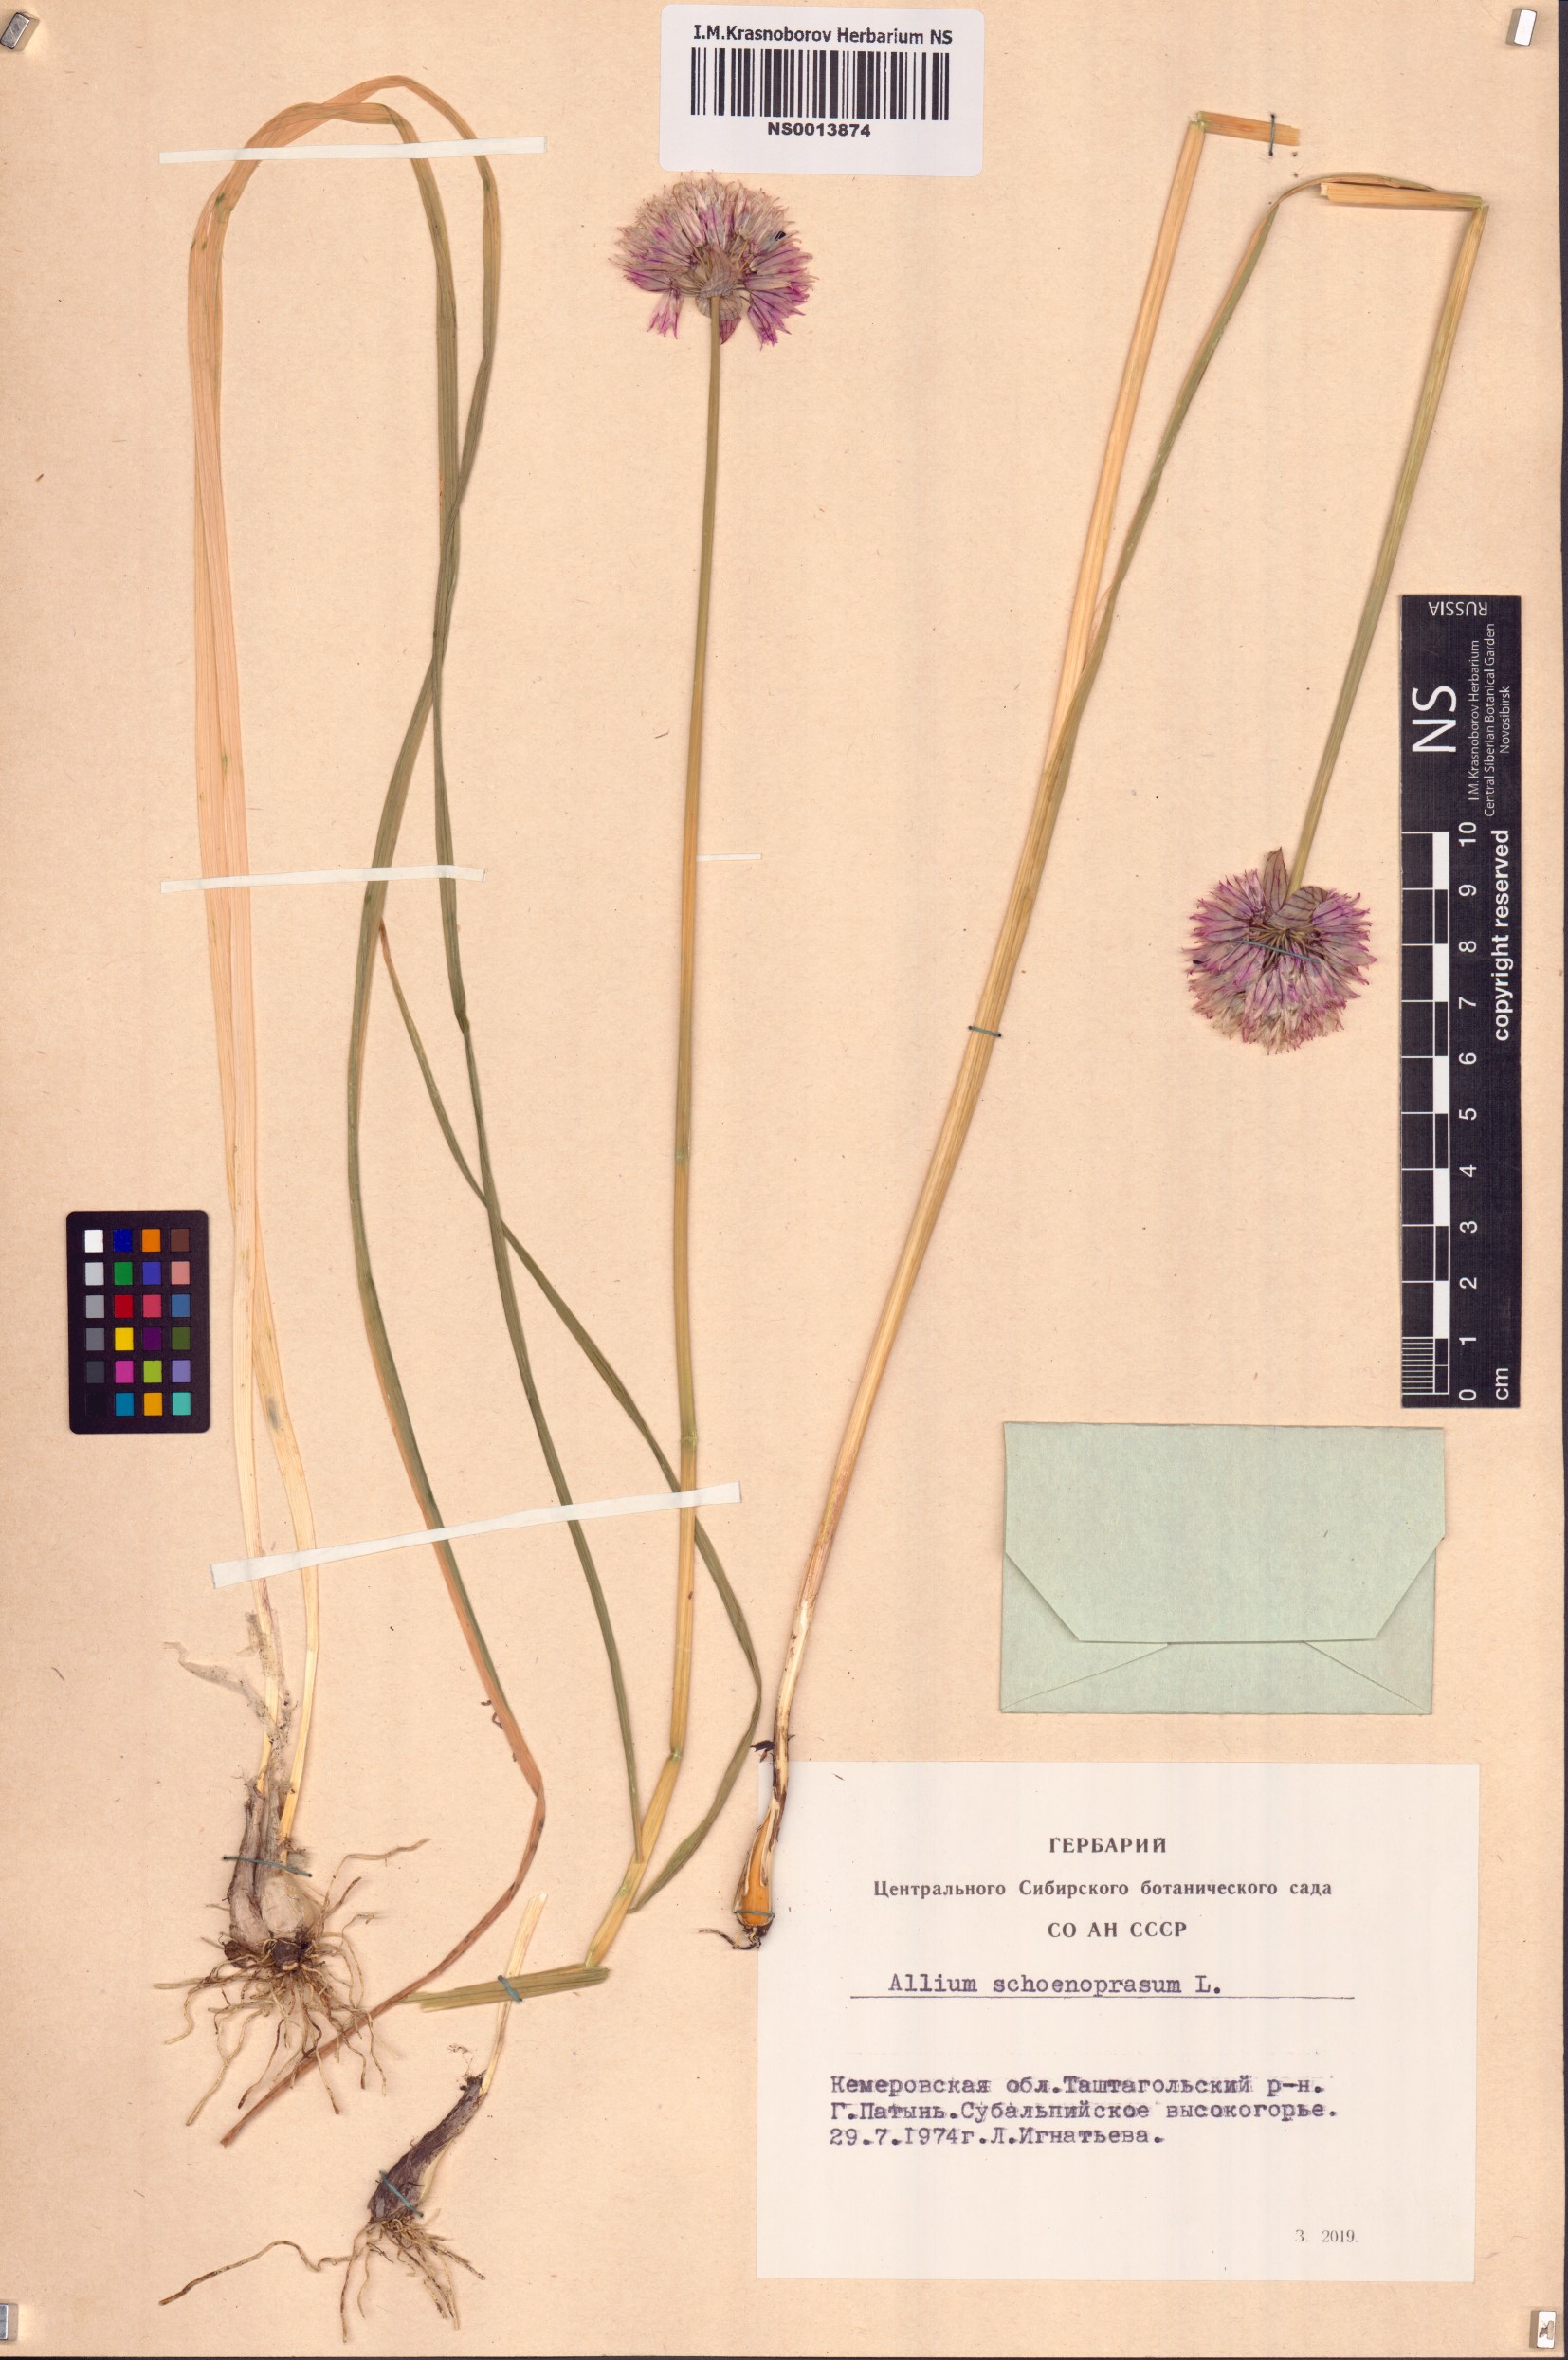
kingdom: Plantae
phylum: Tracheophyta
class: Liliopsida
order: Asparagales
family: Amaryllidaceae
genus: Allium
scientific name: Allium schoenoprasum
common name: Chives
